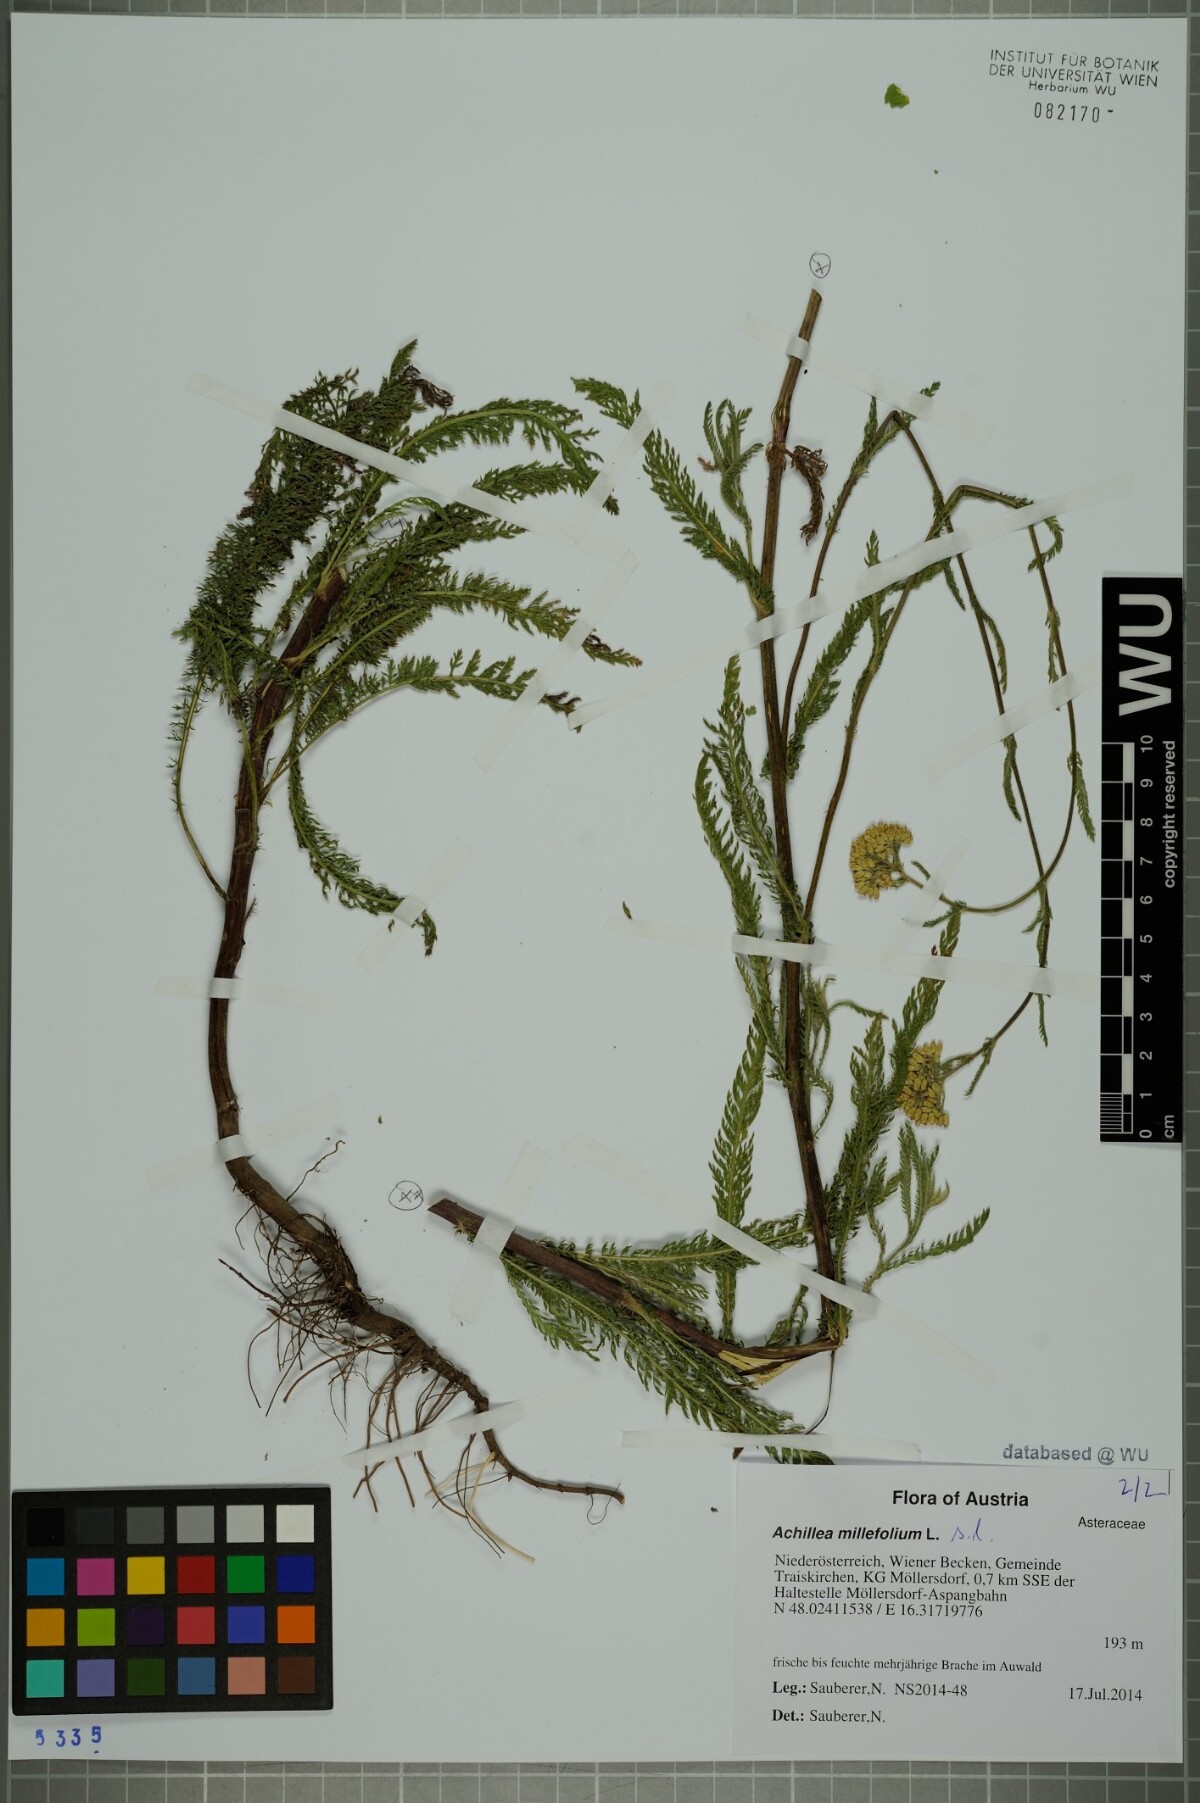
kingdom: Plantae
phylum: Tracheophyta
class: Magnoliopsida
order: Asterales
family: Asteraceae
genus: Achillea
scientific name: Achillea millefolium
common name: Yarrow
